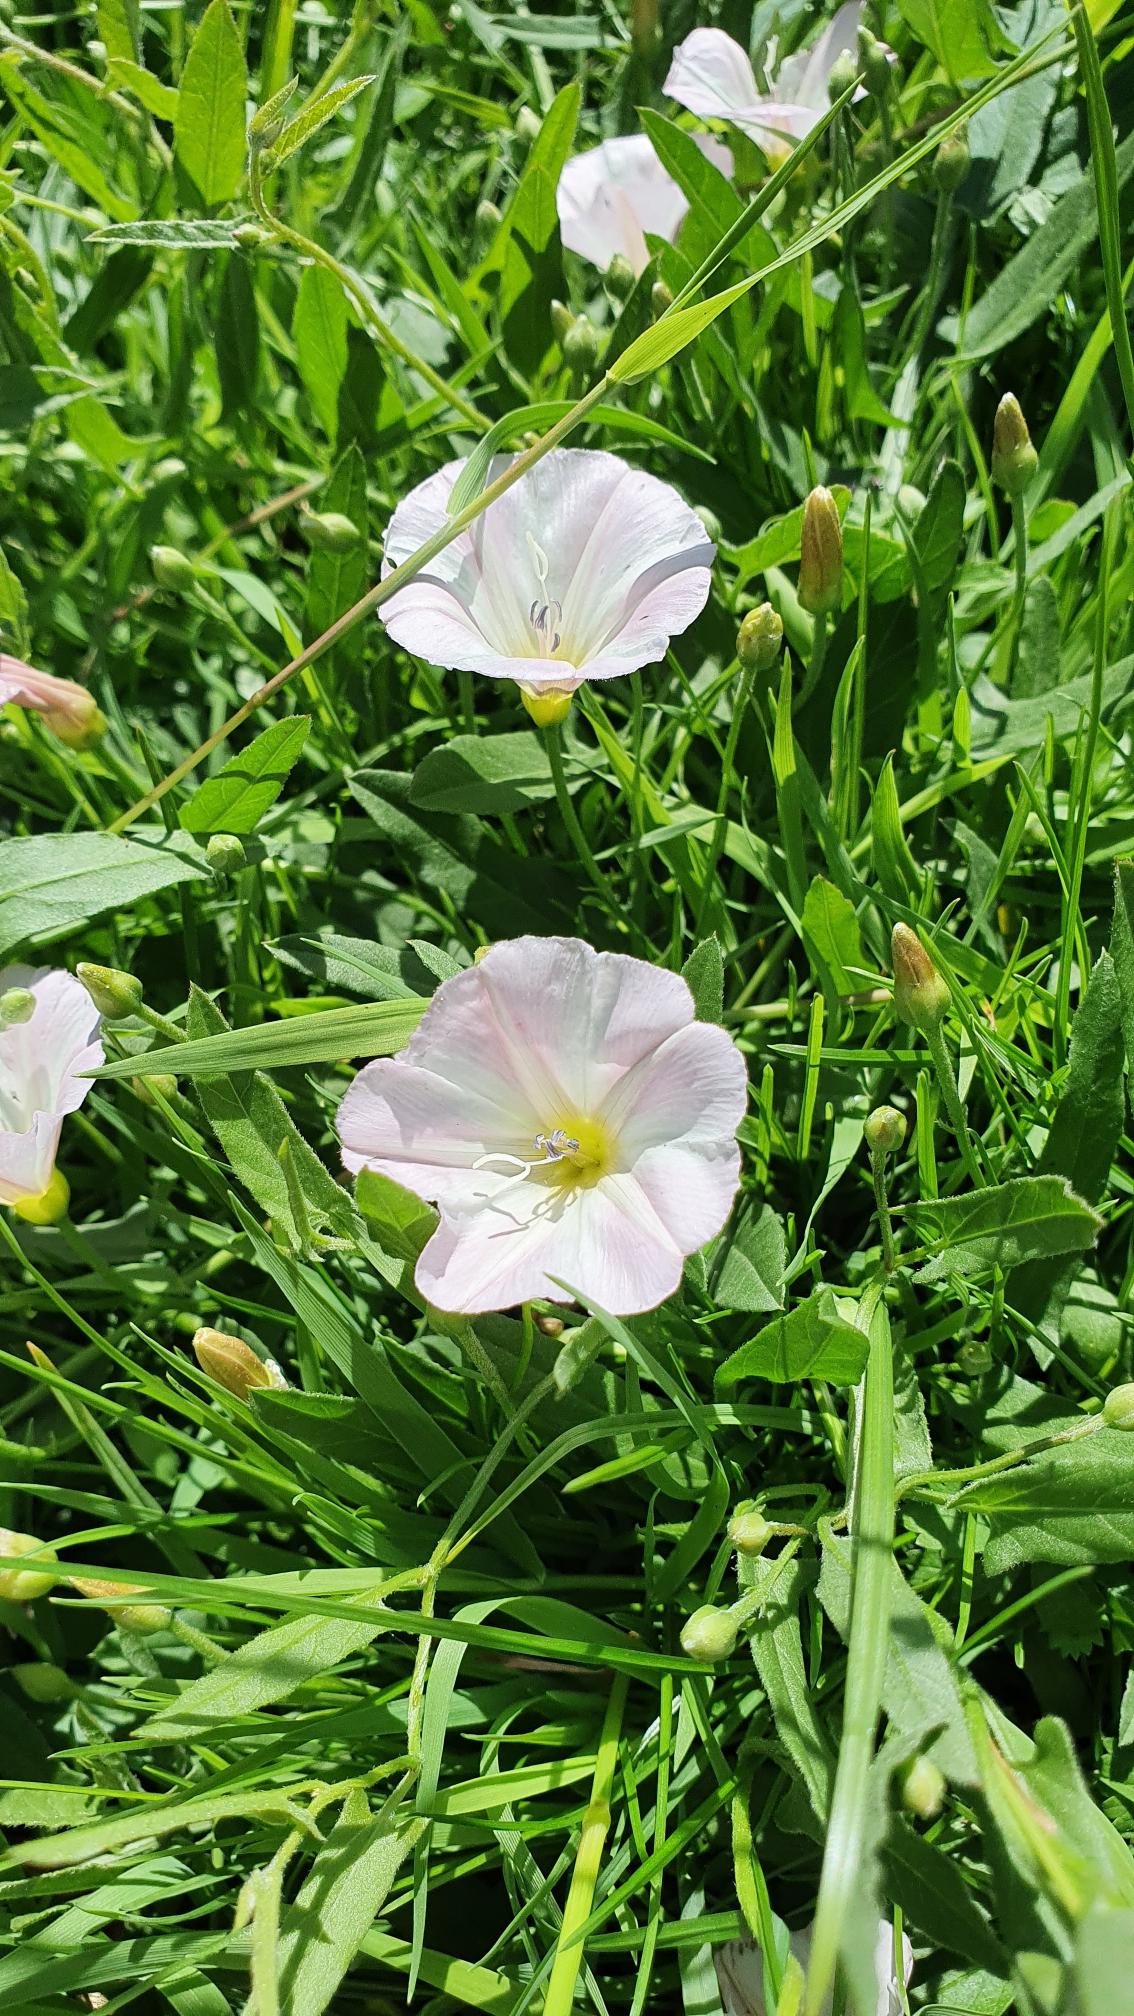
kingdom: Plantae
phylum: Tracheophyta
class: Magnoliopsida
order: Solanales
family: Convolvulaceae
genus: Convolvulus
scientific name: Convolvulus arvensis
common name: Ager-snerle
